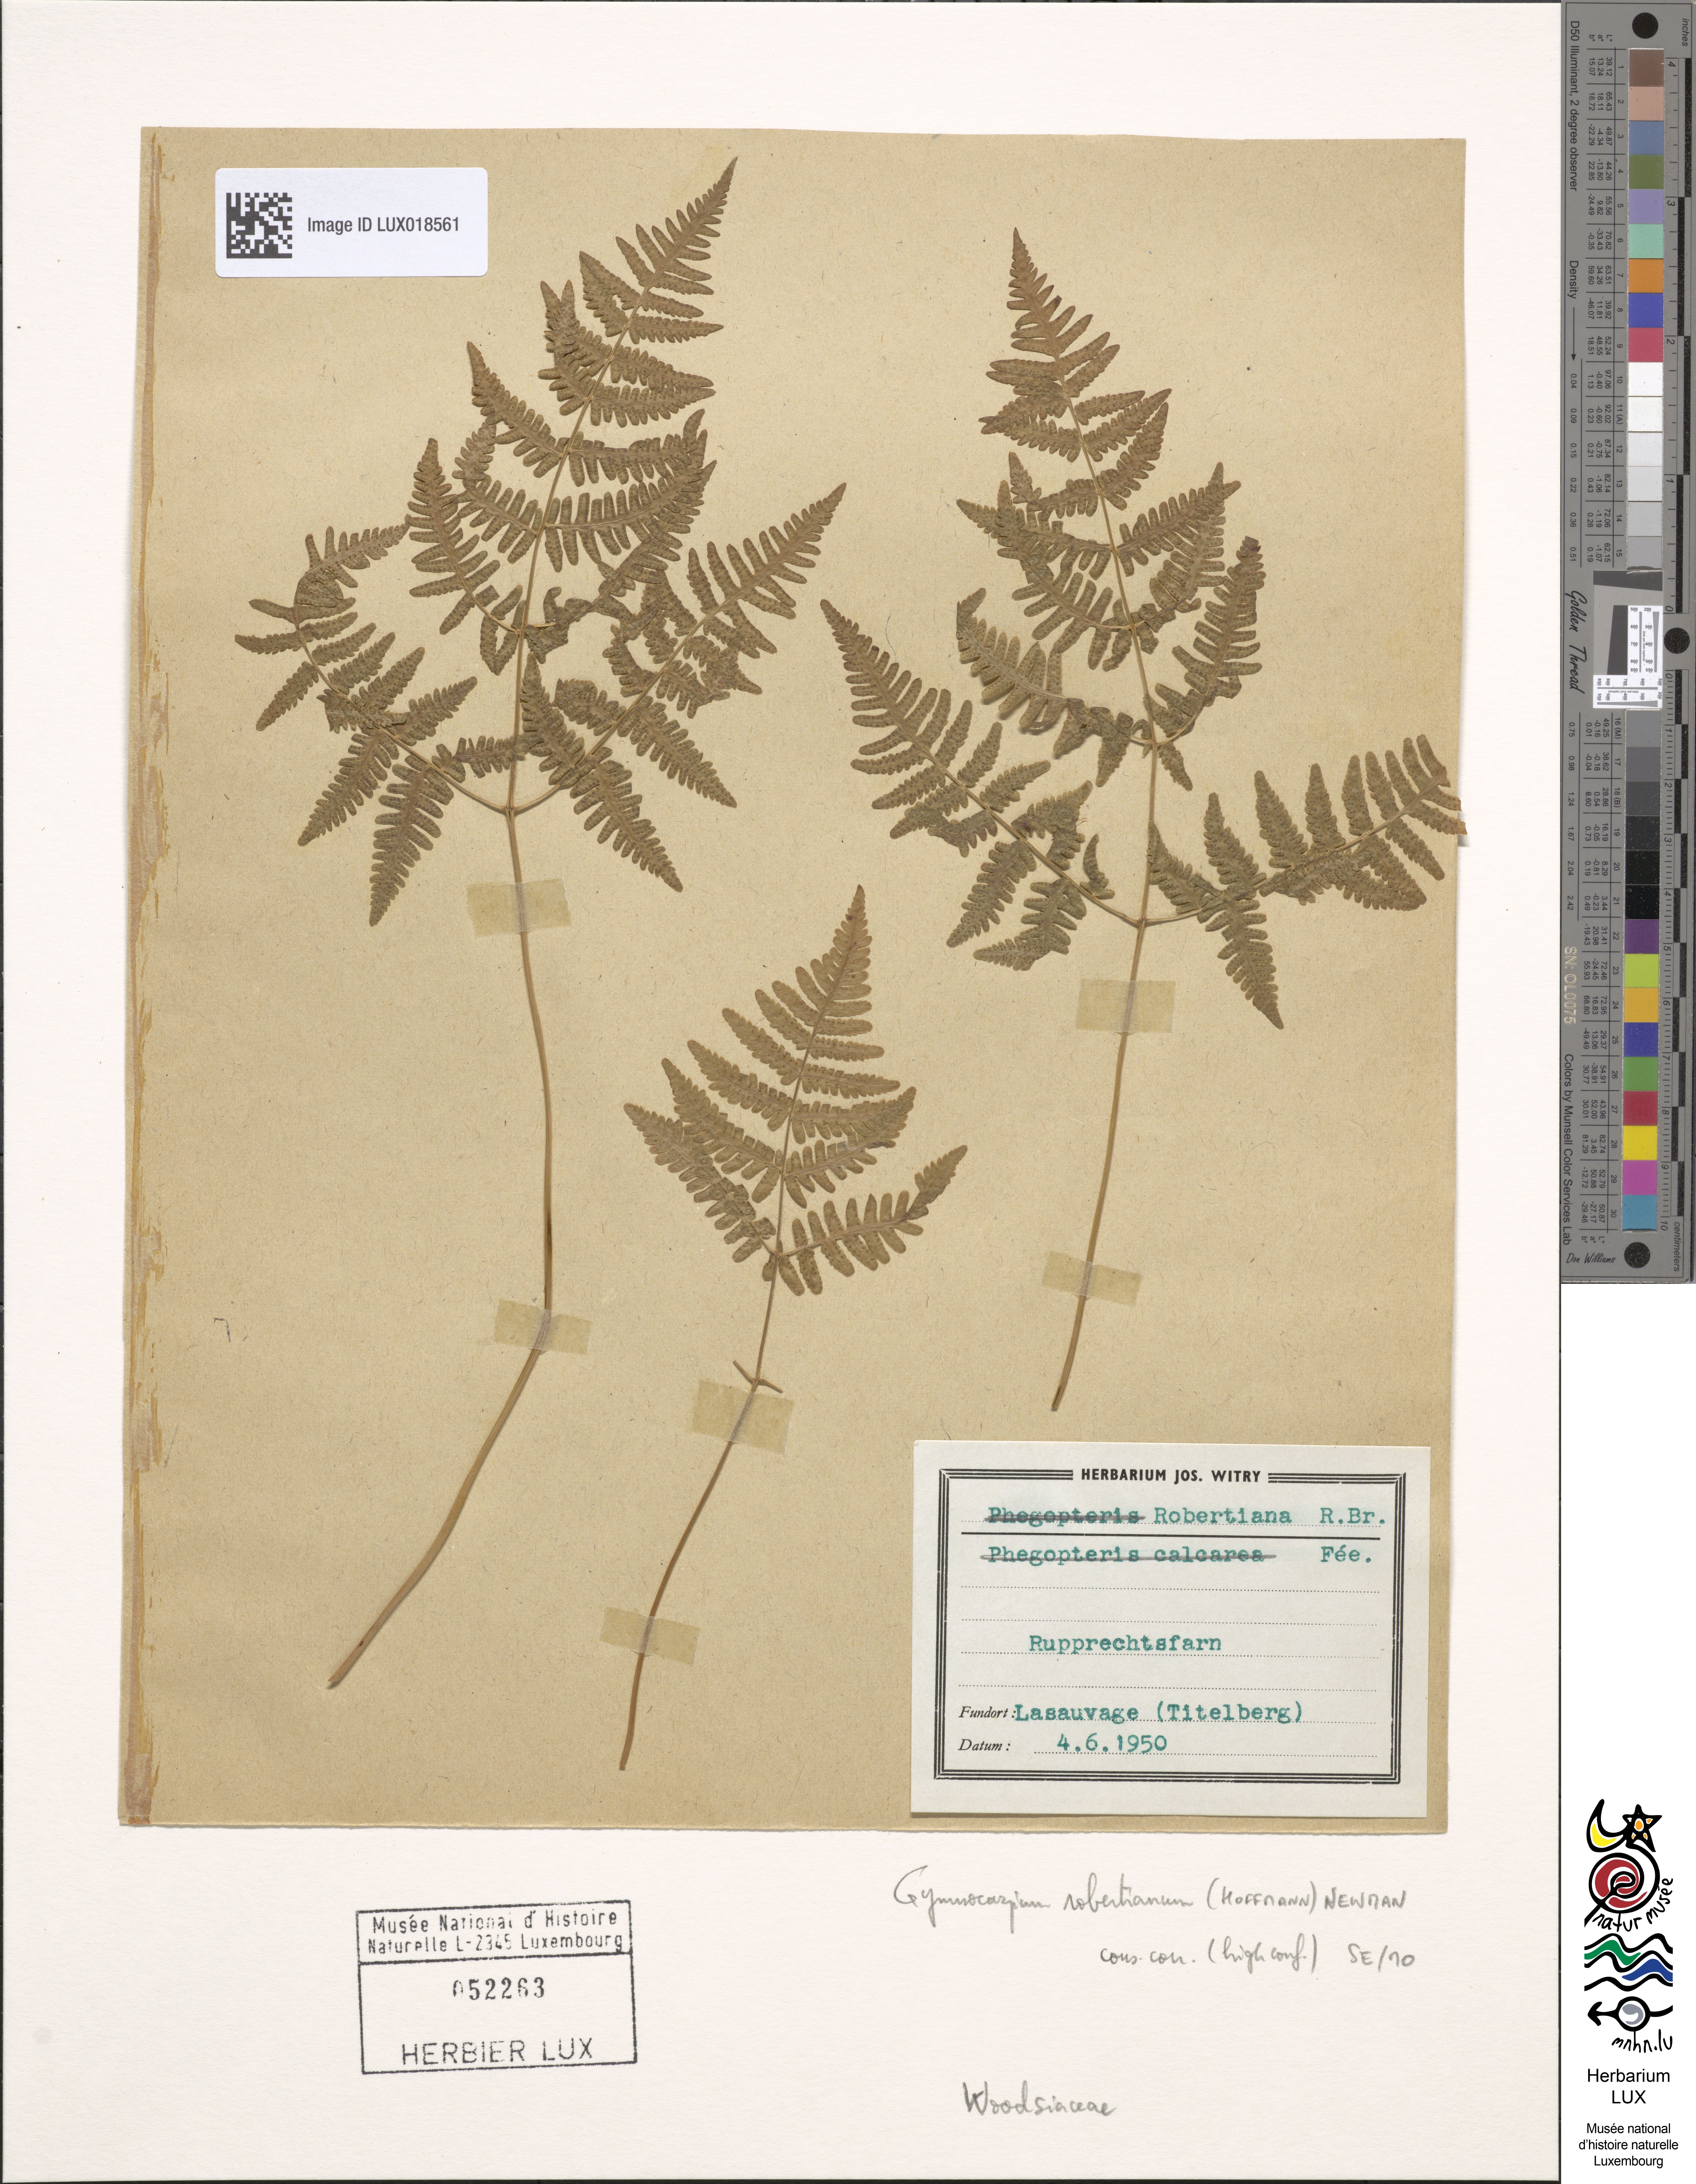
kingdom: Plantae
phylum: Tracheophyta
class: Polypodiopsida
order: Polypodiales
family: Cystopteridaceae
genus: Gymnocarpium
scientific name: Gymnocarpium robertianum
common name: Limestone fern
